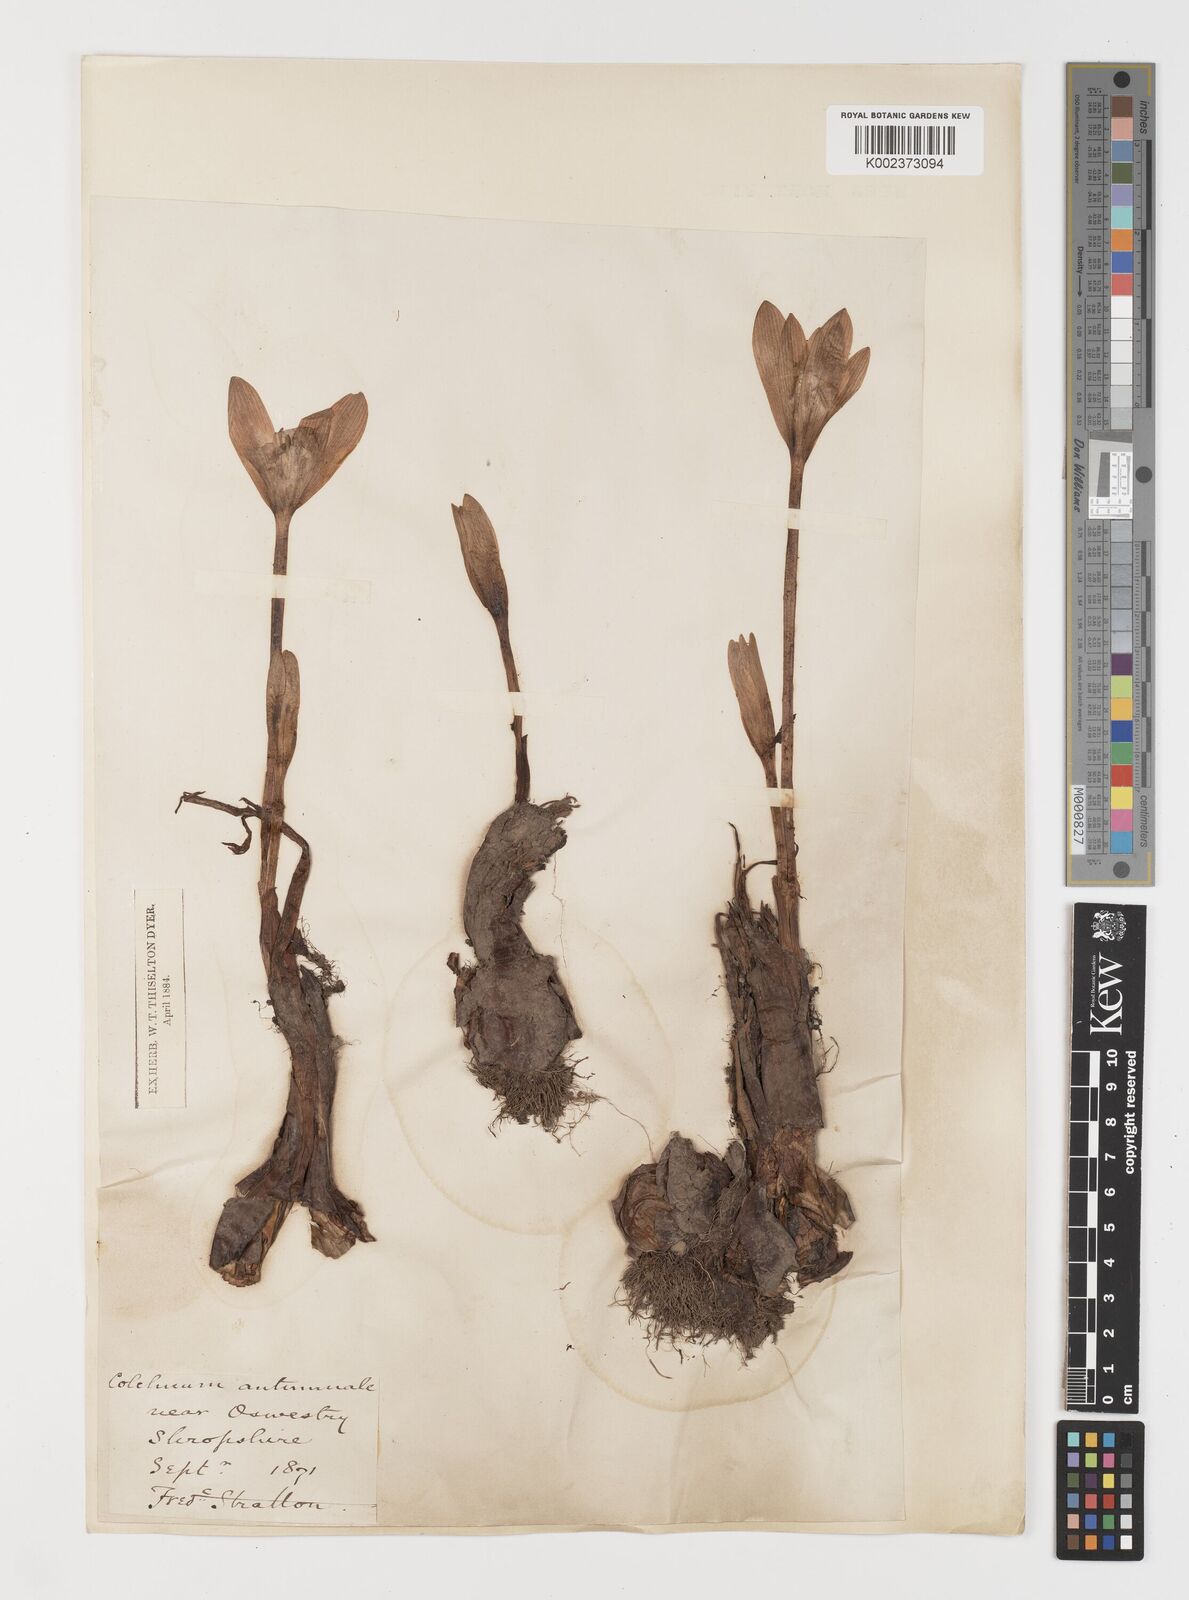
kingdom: Plantae
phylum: Tracheophyta
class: Liliopsida
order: Liliales
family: Colchicaceae
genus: Colchicum
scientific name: Colchicum autumnale
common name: Autumn crocus
